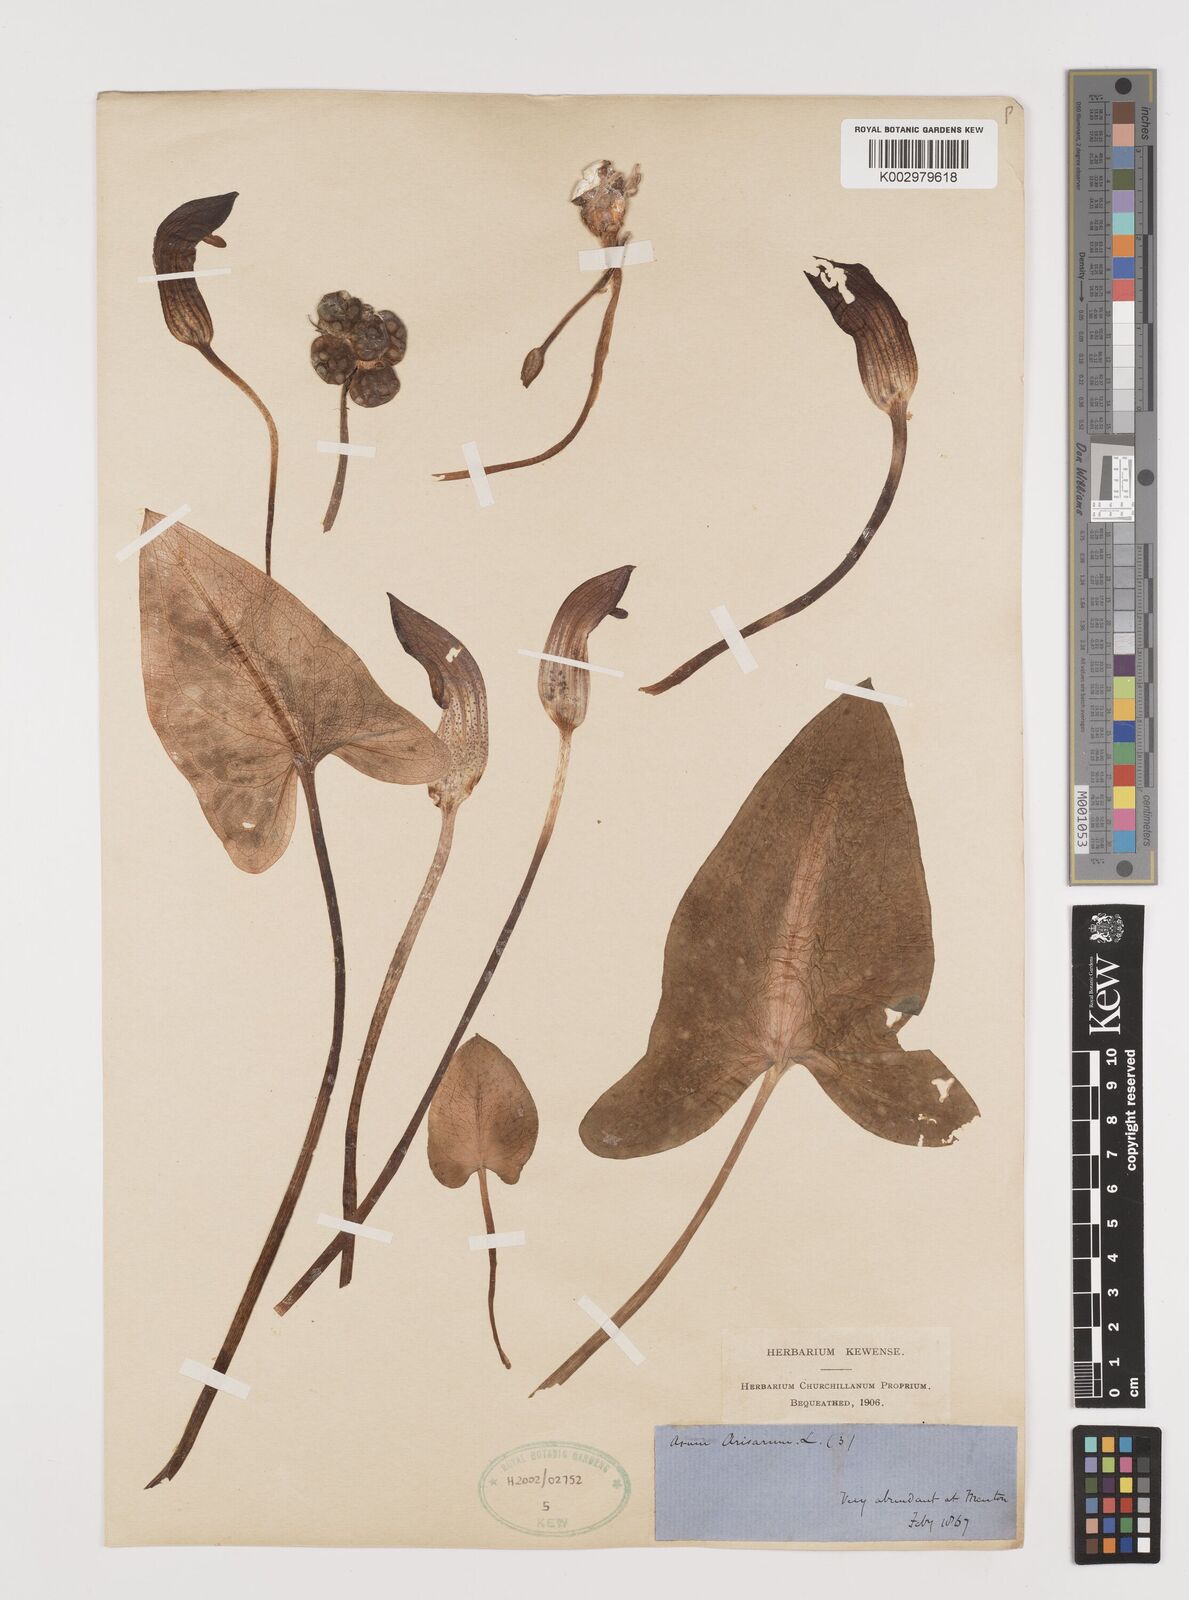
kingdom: Plantae
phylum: Tracheophyta
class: Liliopsida
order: Alismatales
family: Araceae
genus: Arisarum
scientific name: Arisarum vulgare
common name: Common arisarum
